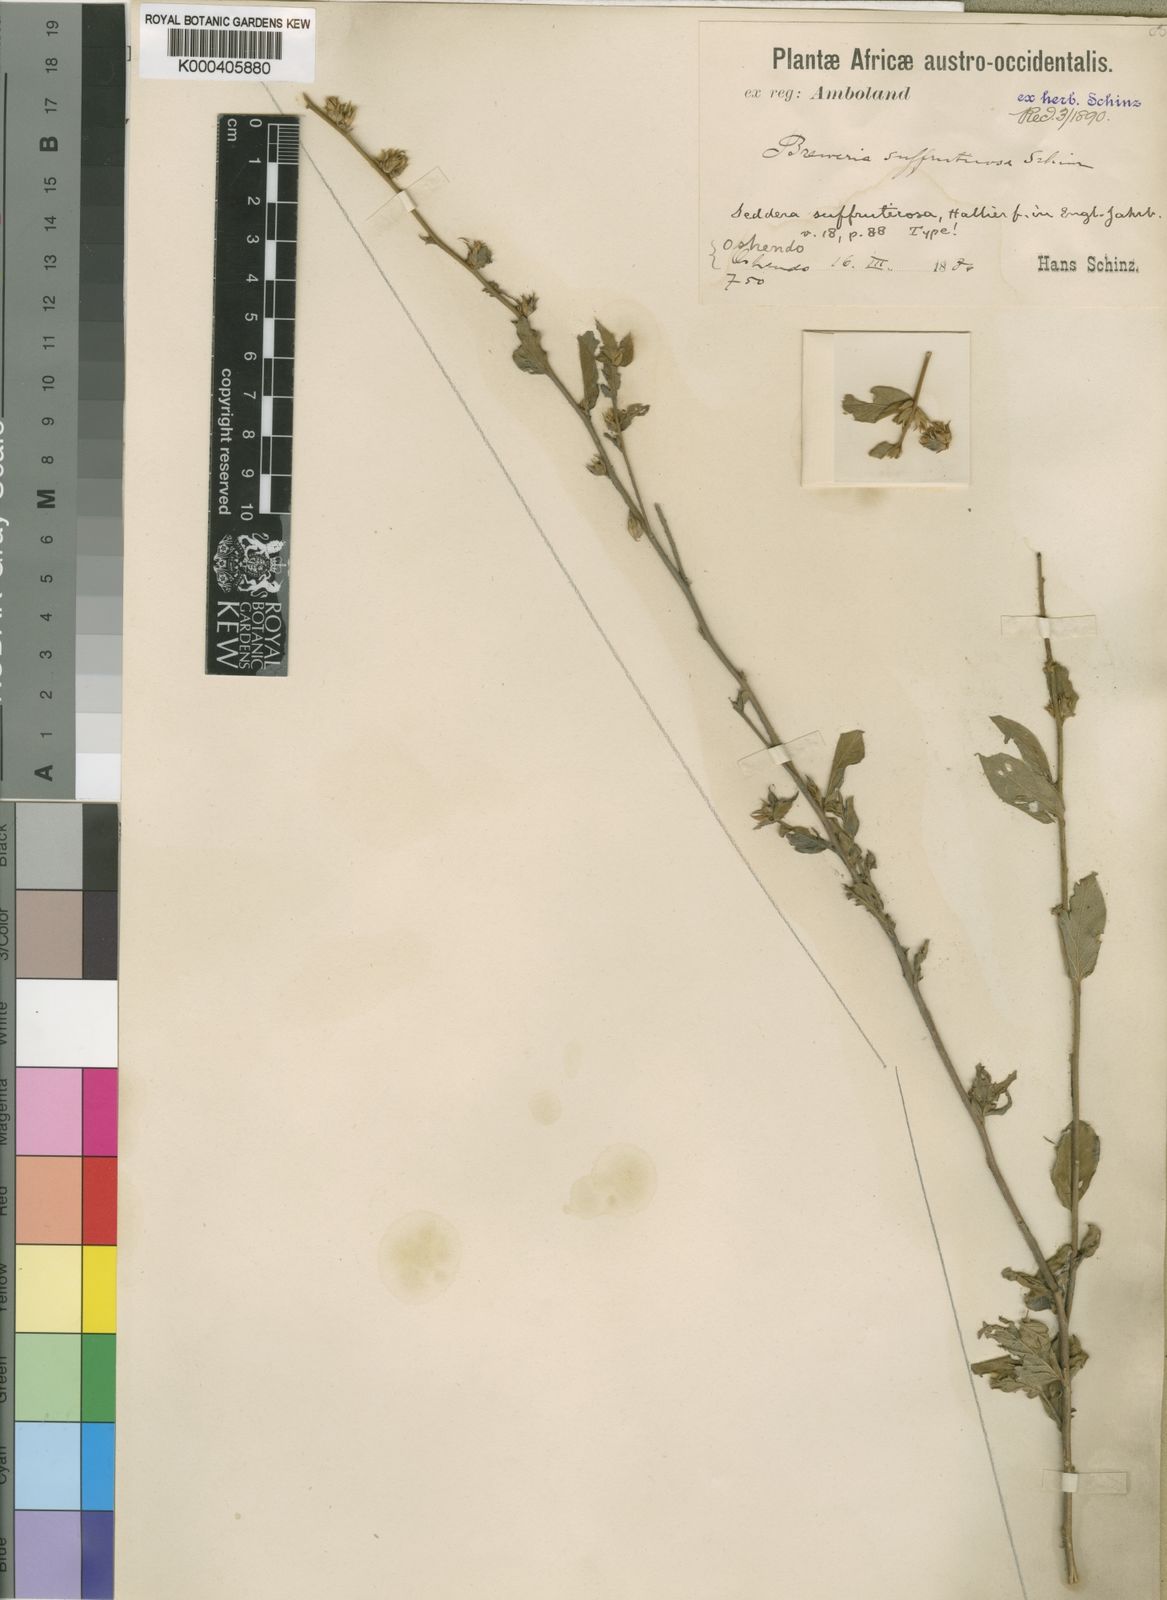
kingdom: Plantae
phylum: Tracheophyta
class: Magnoliopsida
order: Solanales
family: Convolvulaceae
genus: Seddera
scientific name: Seddera suffruticosa
